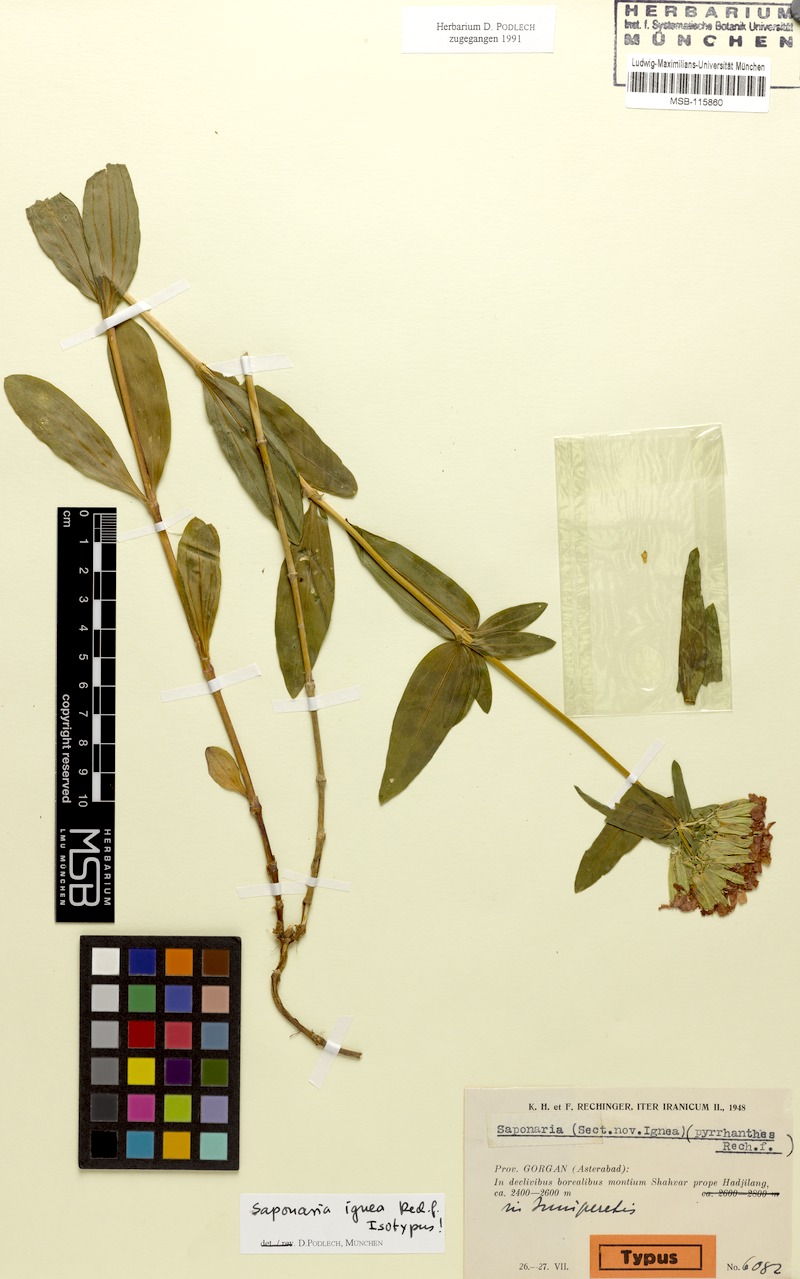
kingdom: Plantae
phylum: Tracheophyta
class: Magnoliopsida
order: Caryophyllales
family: Caryophyllaceae
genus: Saponaria
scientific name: Saponaria bodeana
